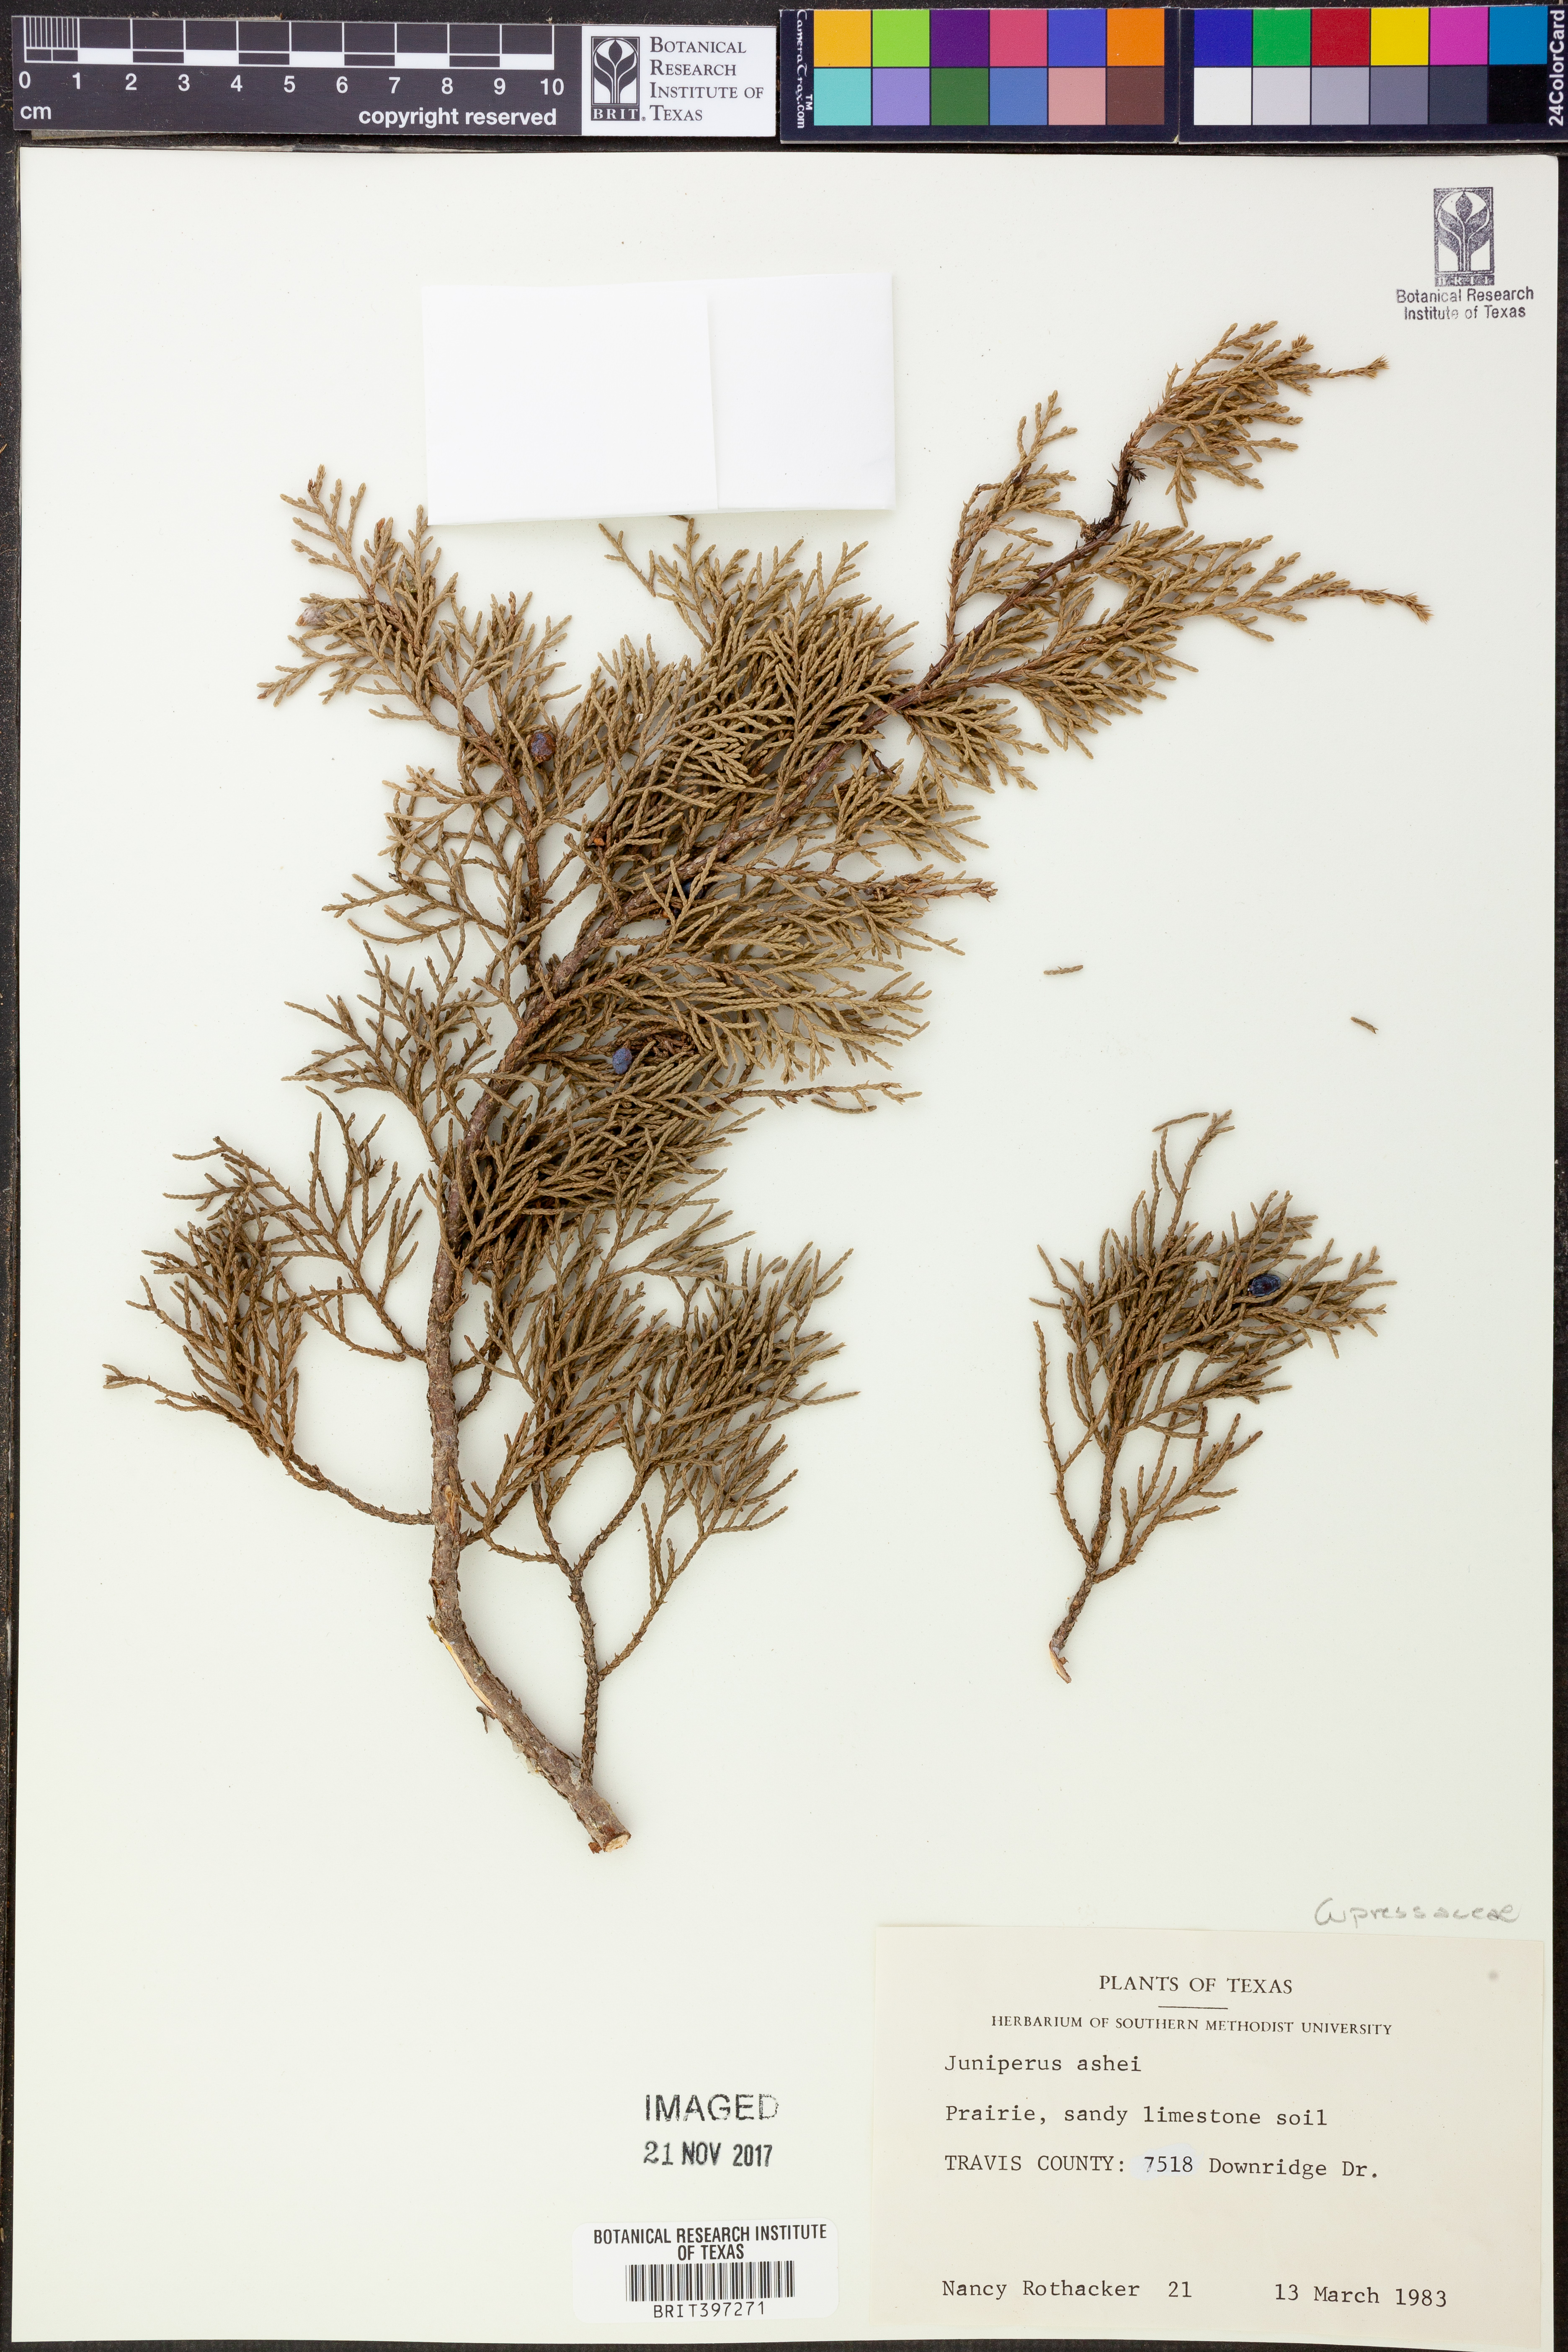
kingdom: Plantae
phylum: Tracheophyta
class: Pinopsida
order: Pinales
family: Cupressaceae
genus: Juniperus
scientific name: Juniperus ashei
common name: Mexican juniper
